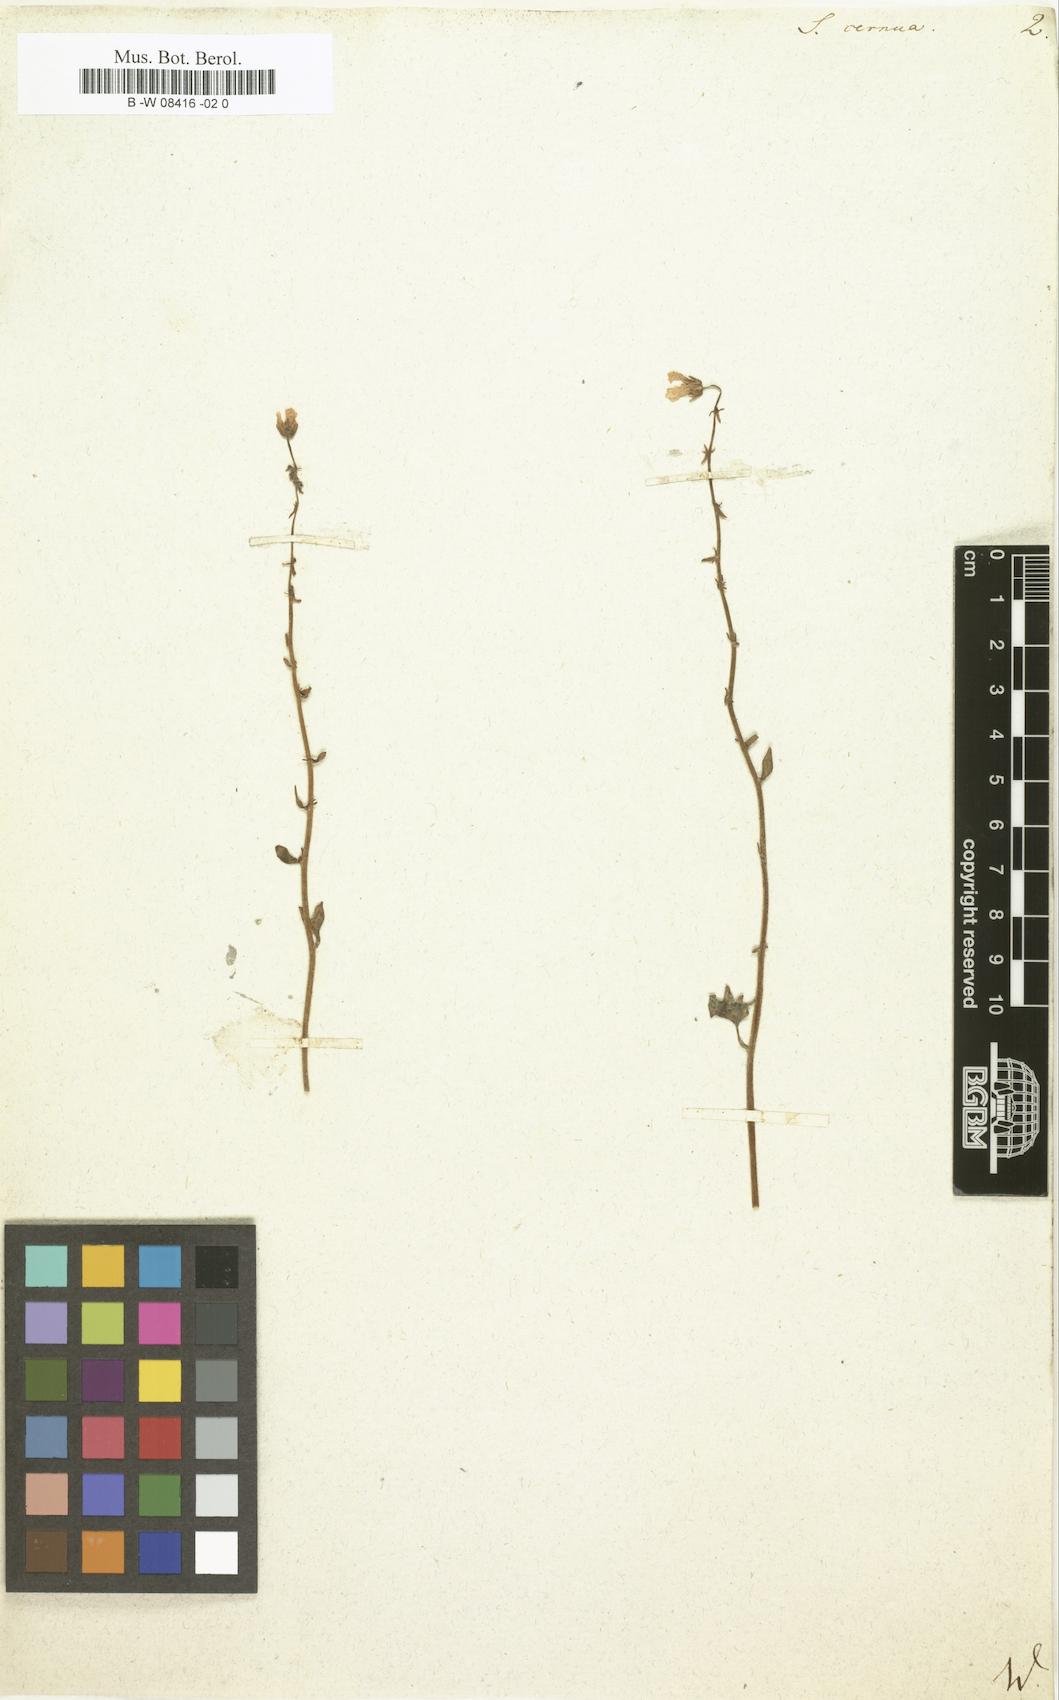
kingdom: Plantae
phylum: Tracheophyta
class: Magnoliopsida
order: Saxifragales
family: Saxifragaceae
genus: Saxifraga
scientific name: Saxifraga cernua
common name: Drooping saxifrage
